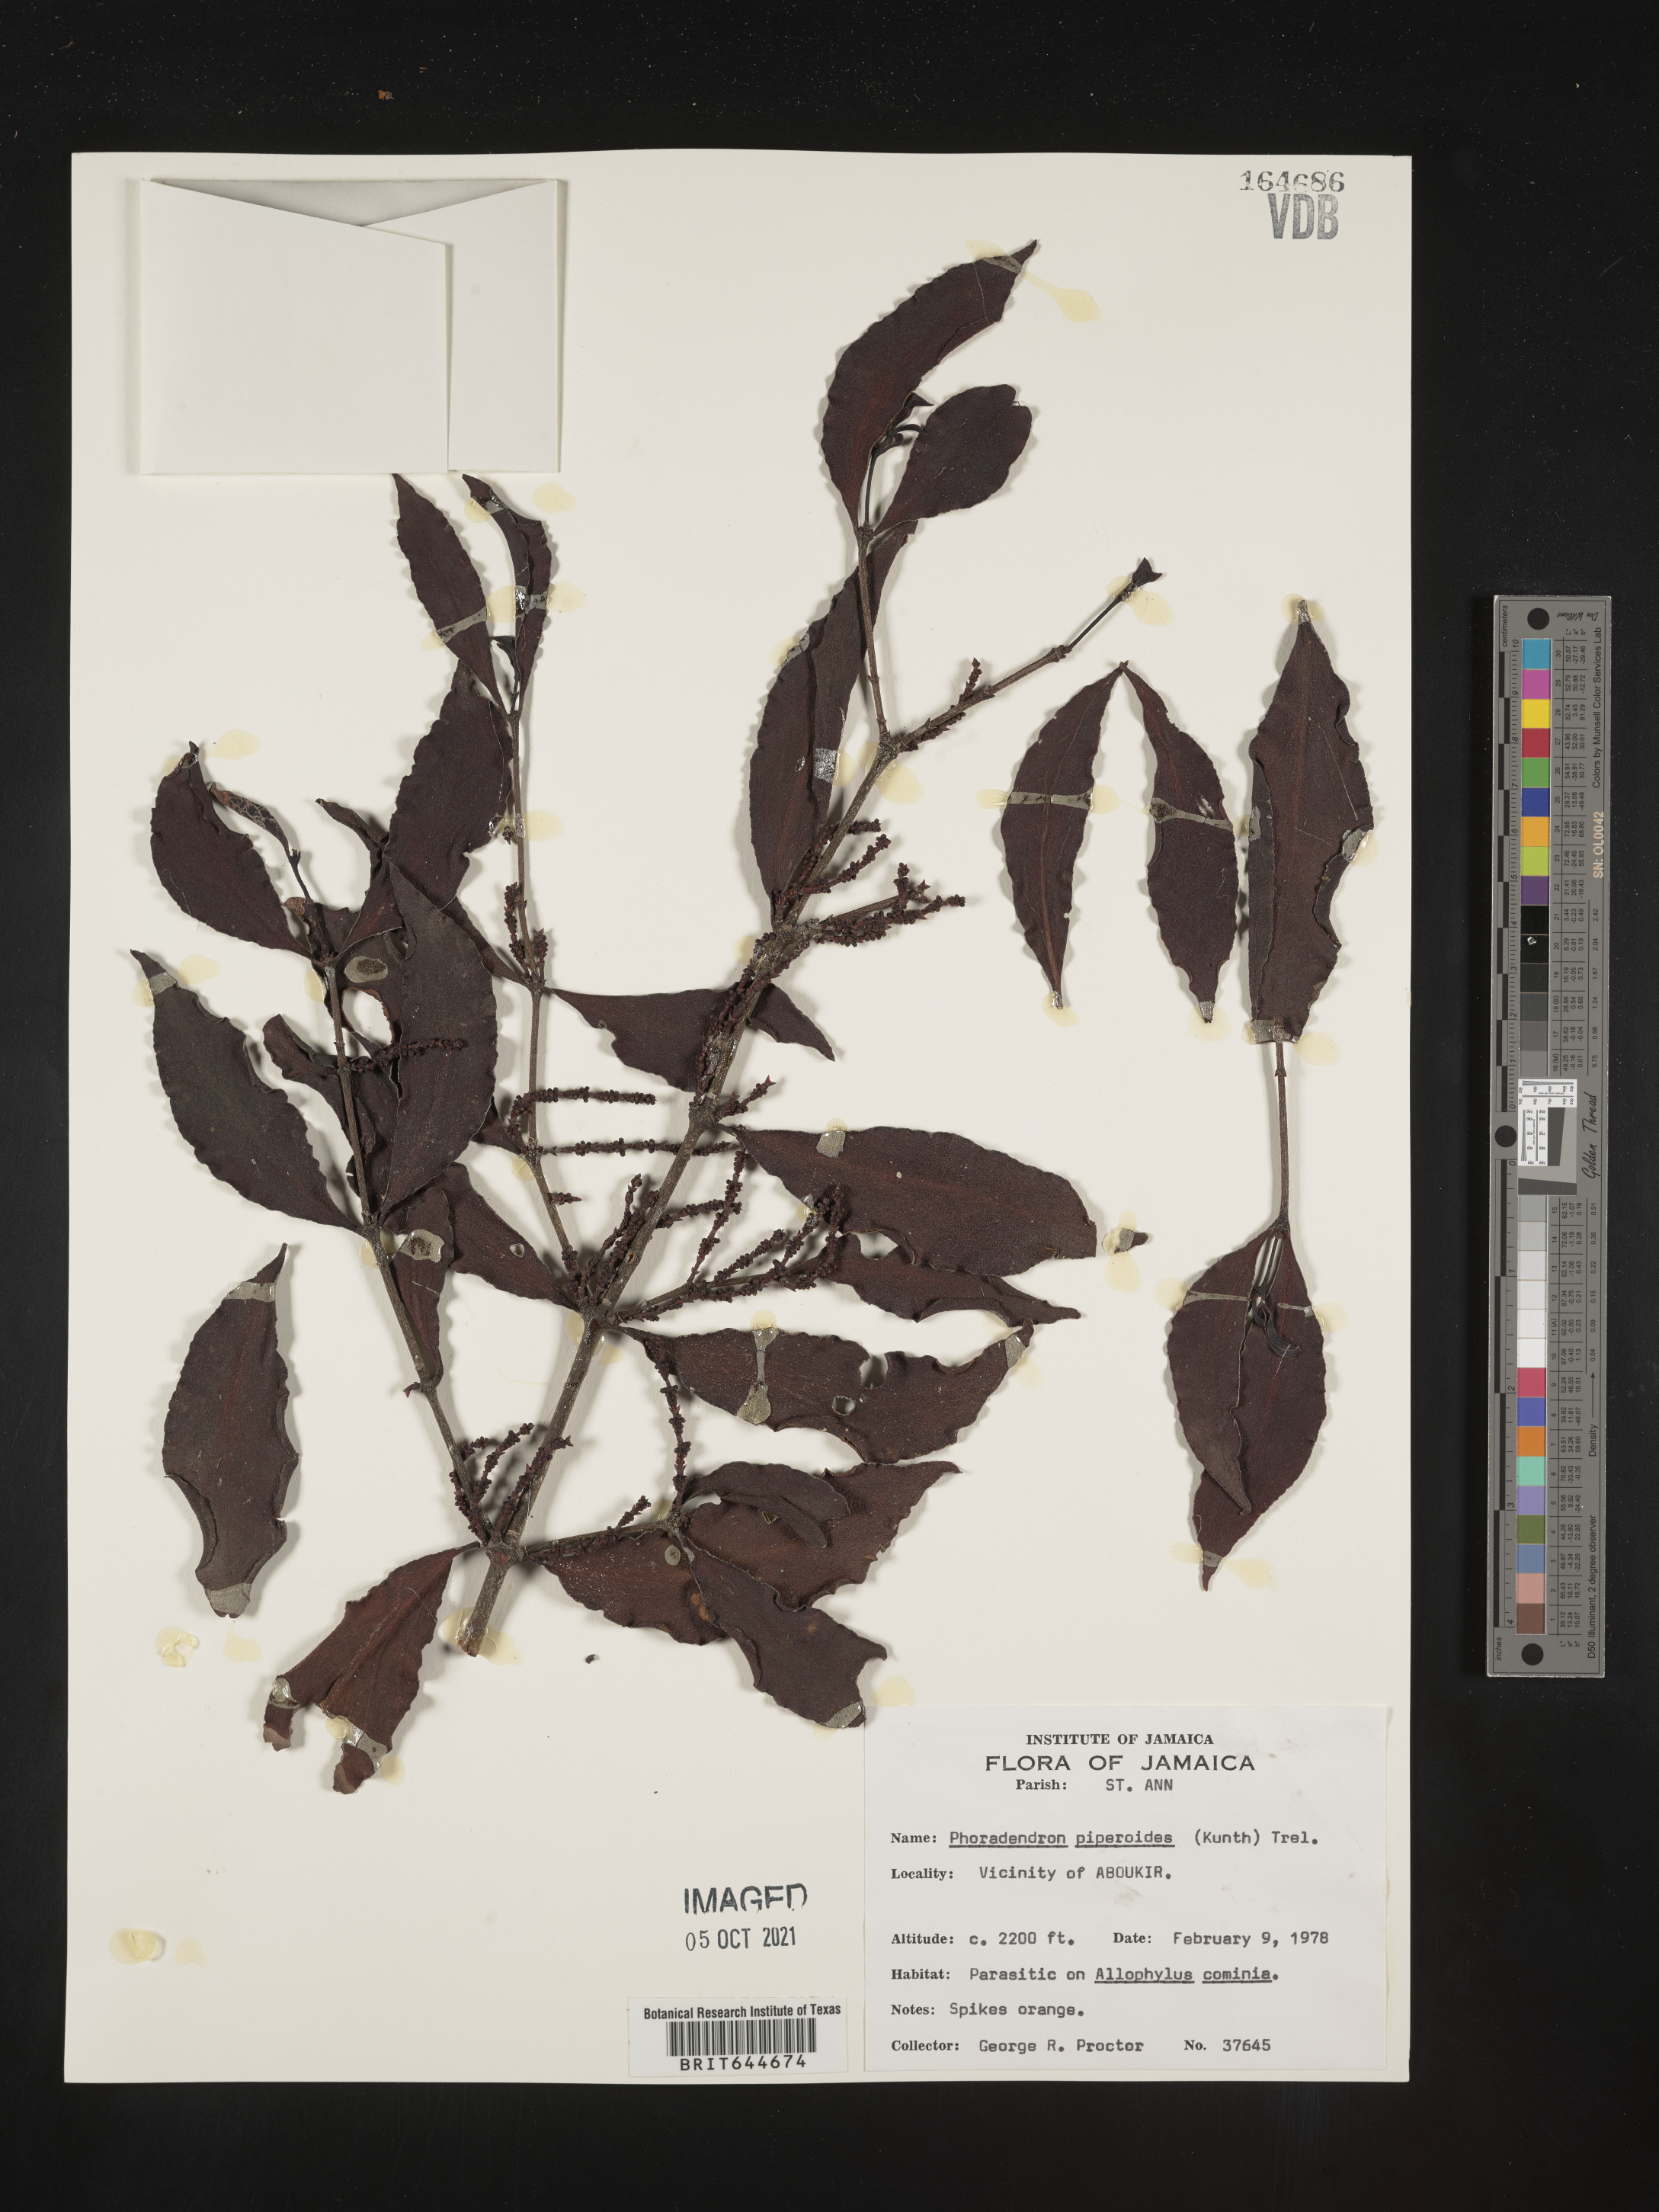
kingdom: Plantae
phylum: Tracheophyta
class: Magnoliopsida
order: Santalales
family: Viscaceae
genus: Phoradendron
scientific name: Phoradendron
